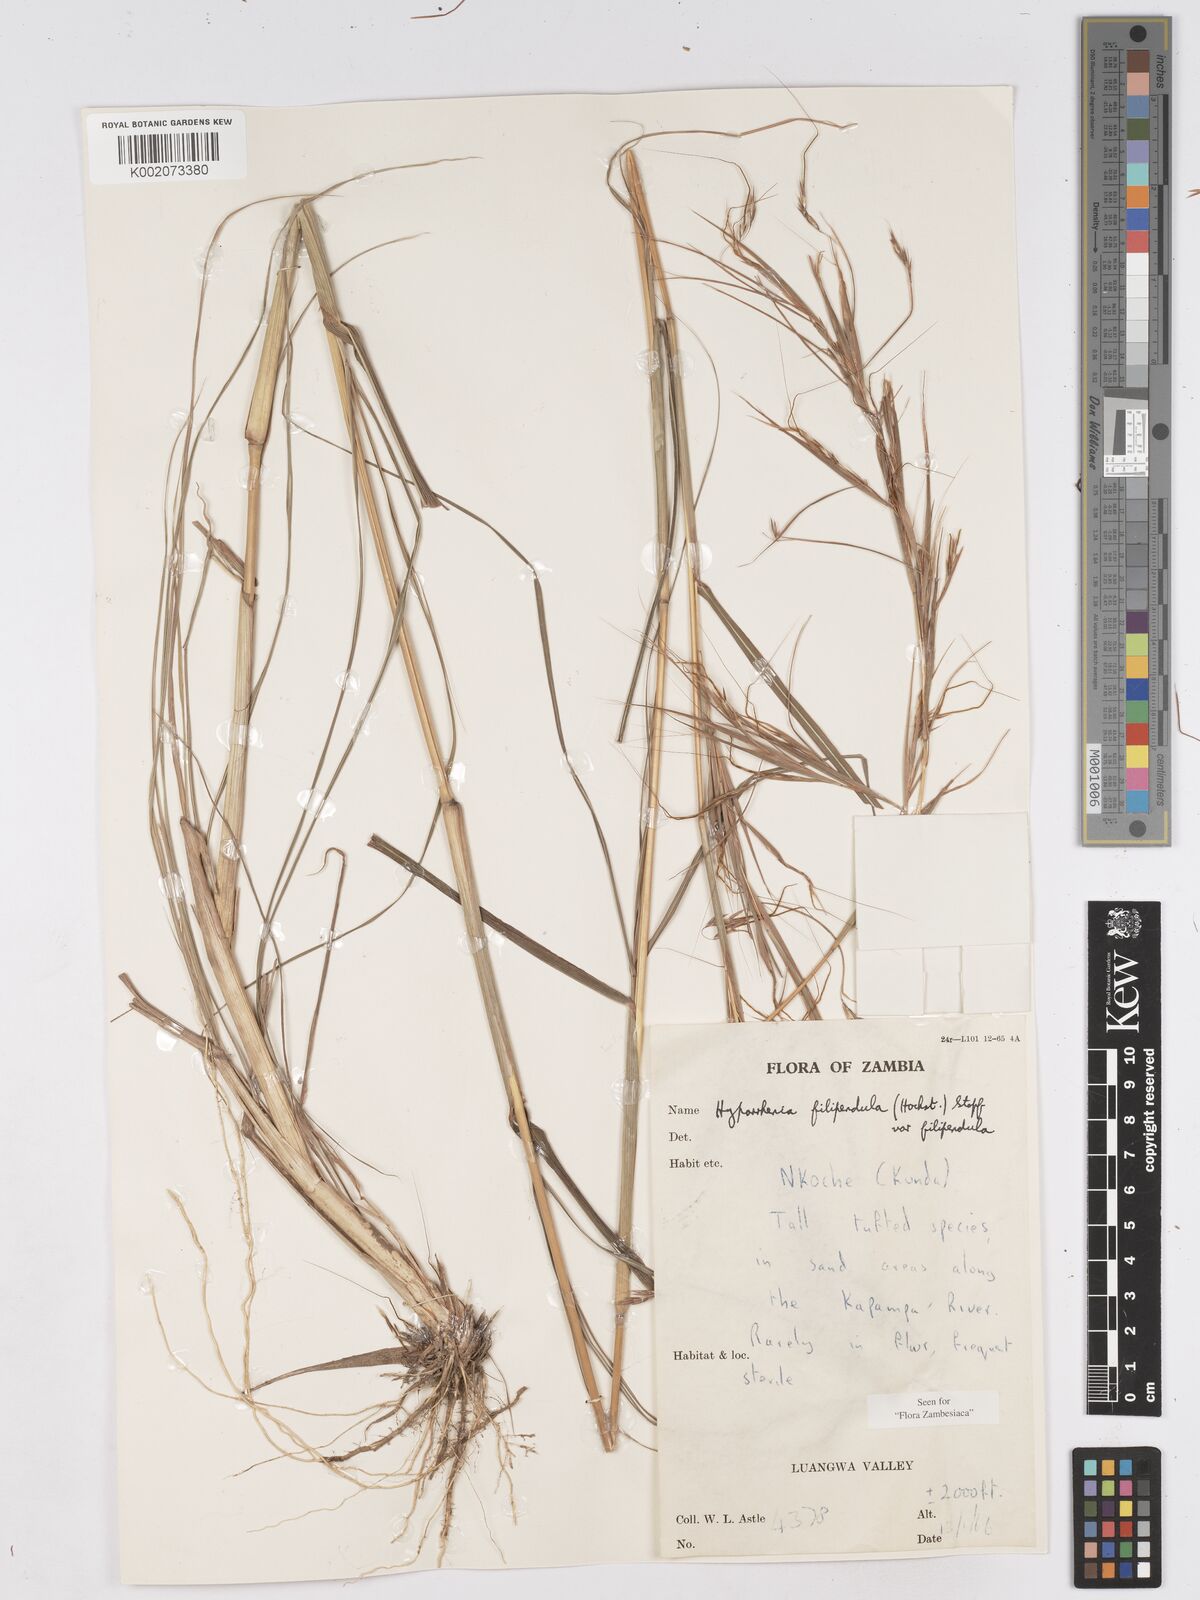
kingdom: Plantae
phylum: Tracheophyta
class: Liliopsida
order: Poales
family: Poaceae
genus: Hyparrhenia
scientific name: Hyparrhenia filipendula
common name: Tambookie grass
